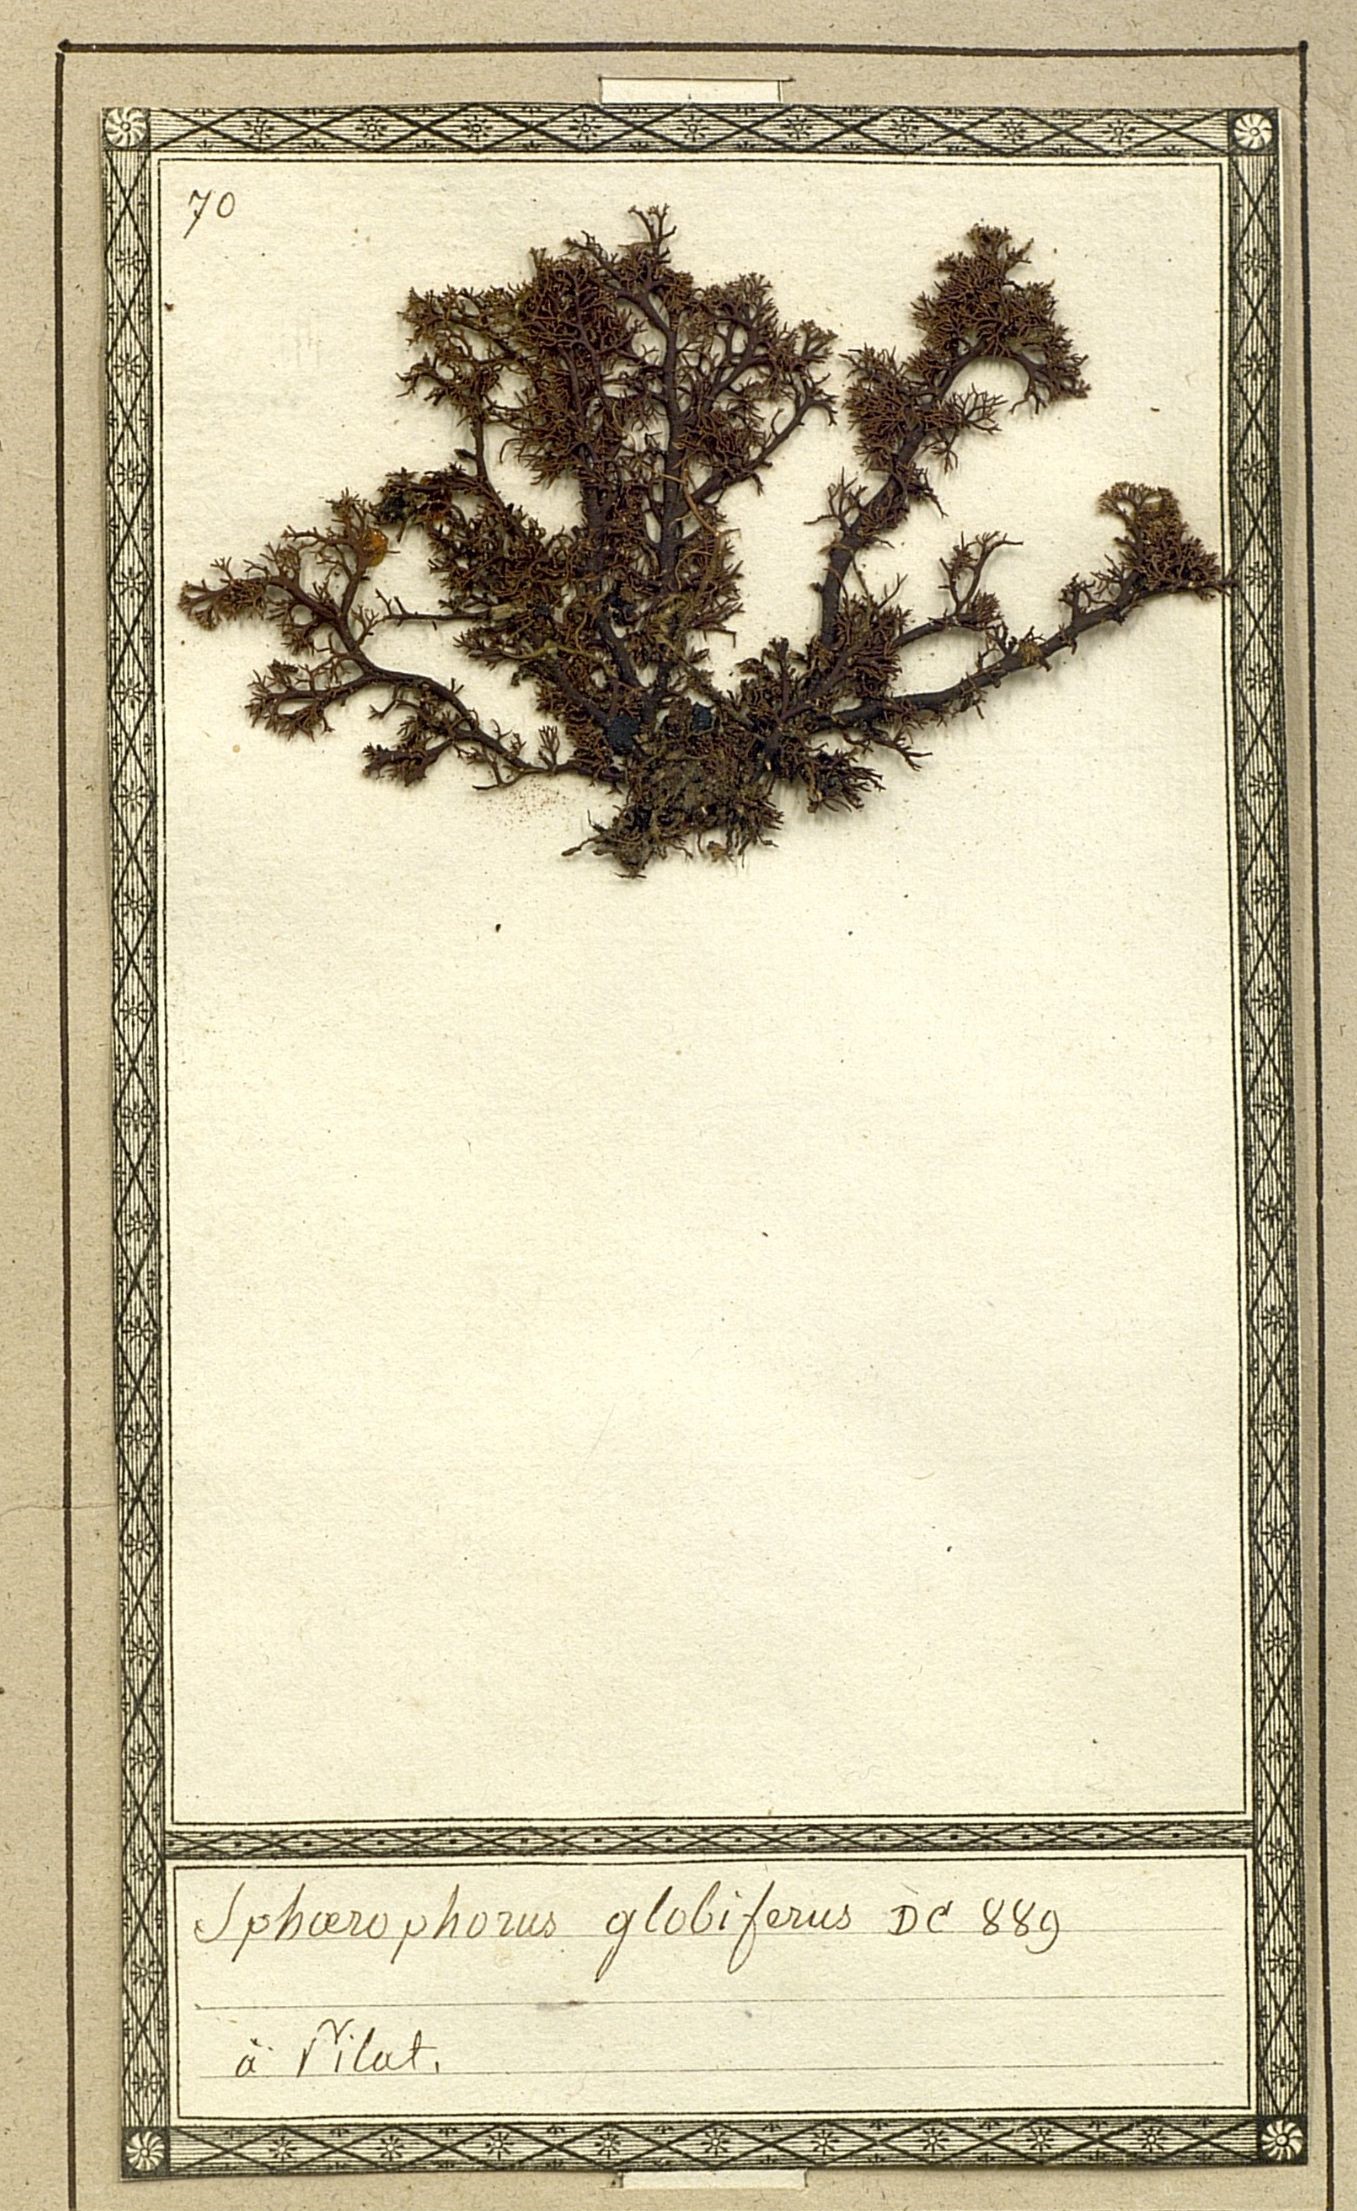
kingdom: Fungi
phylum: Ascomycota
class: Lecanoromycetes
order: Lecanorales
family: Sphaerophoraceae
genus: Sphaerophorus
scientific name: Sphaerophorus globosus
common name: Globe ball lichen
